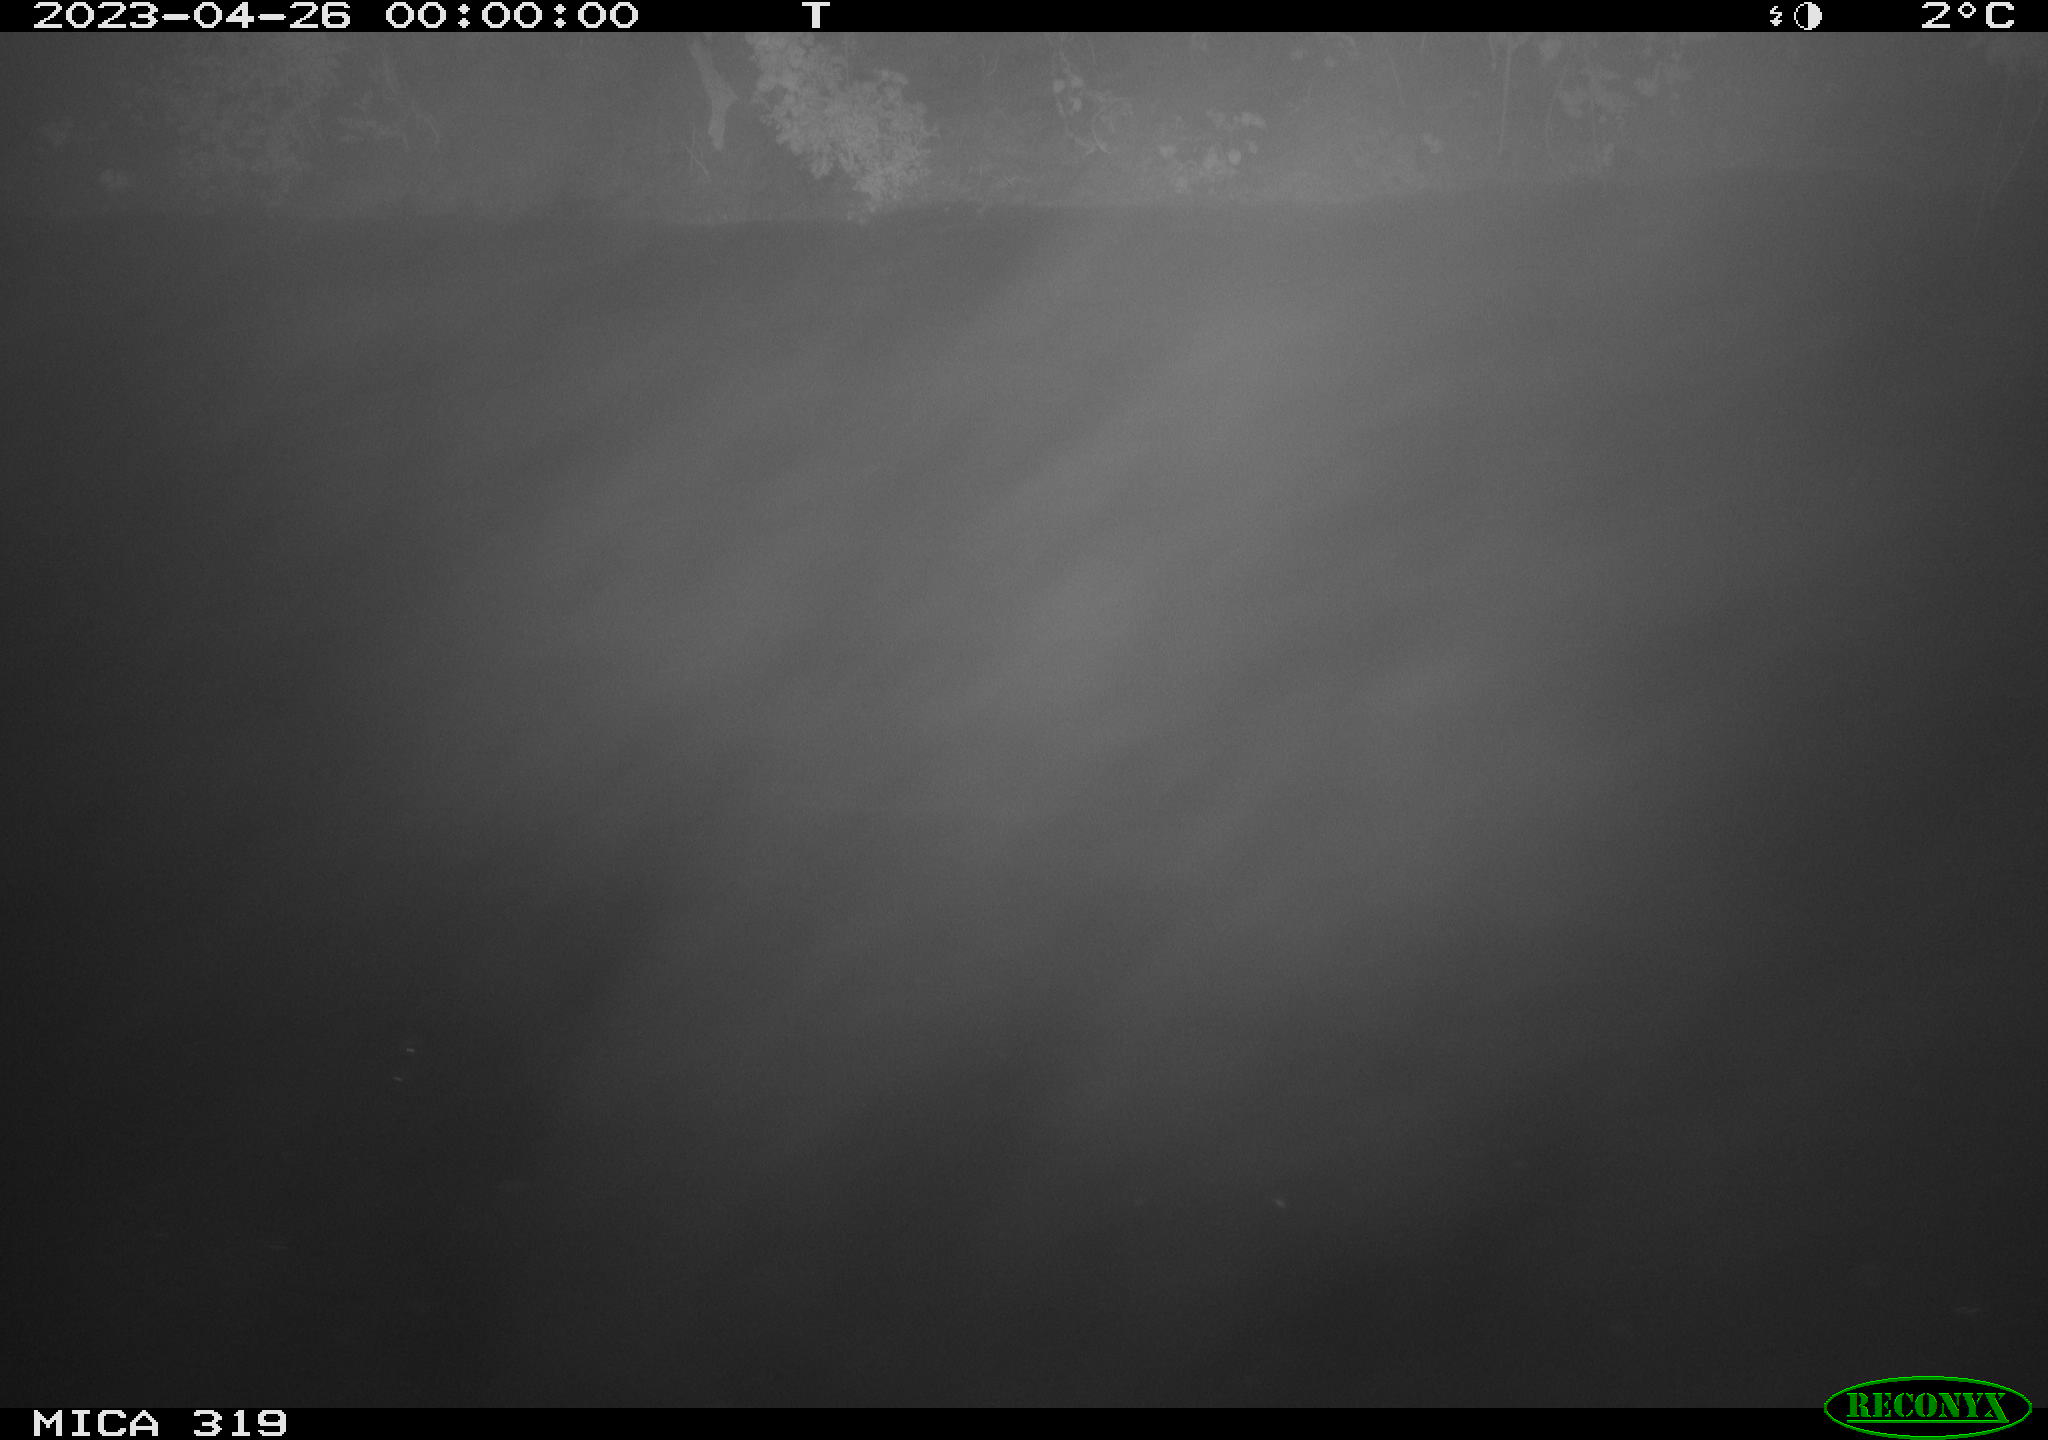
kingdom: Animalia
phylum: Chordata
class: Mammalia
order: Rodentia
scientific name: Rodentia
